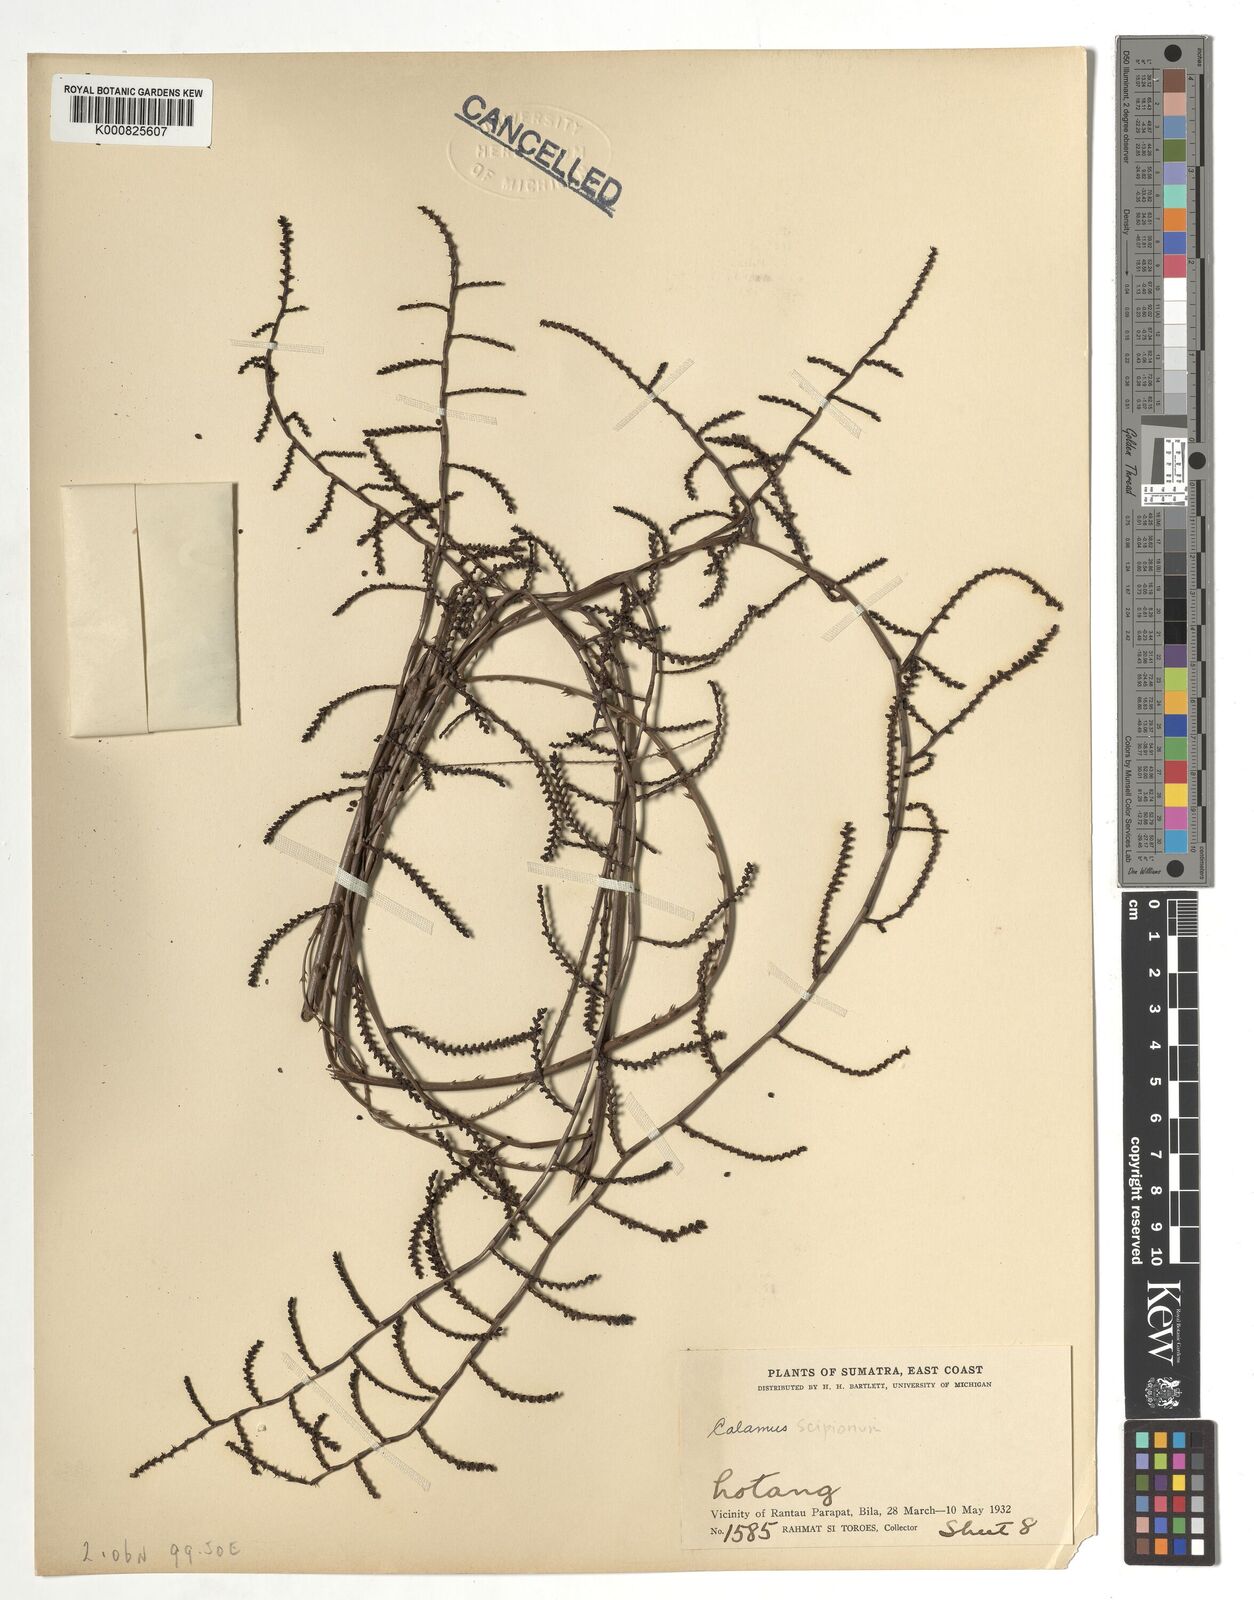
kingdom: Plantae
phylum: Tracheophyta
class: Liliopsida
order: Arecales
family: Arecaceae
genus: Calamus
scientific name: Calamus
